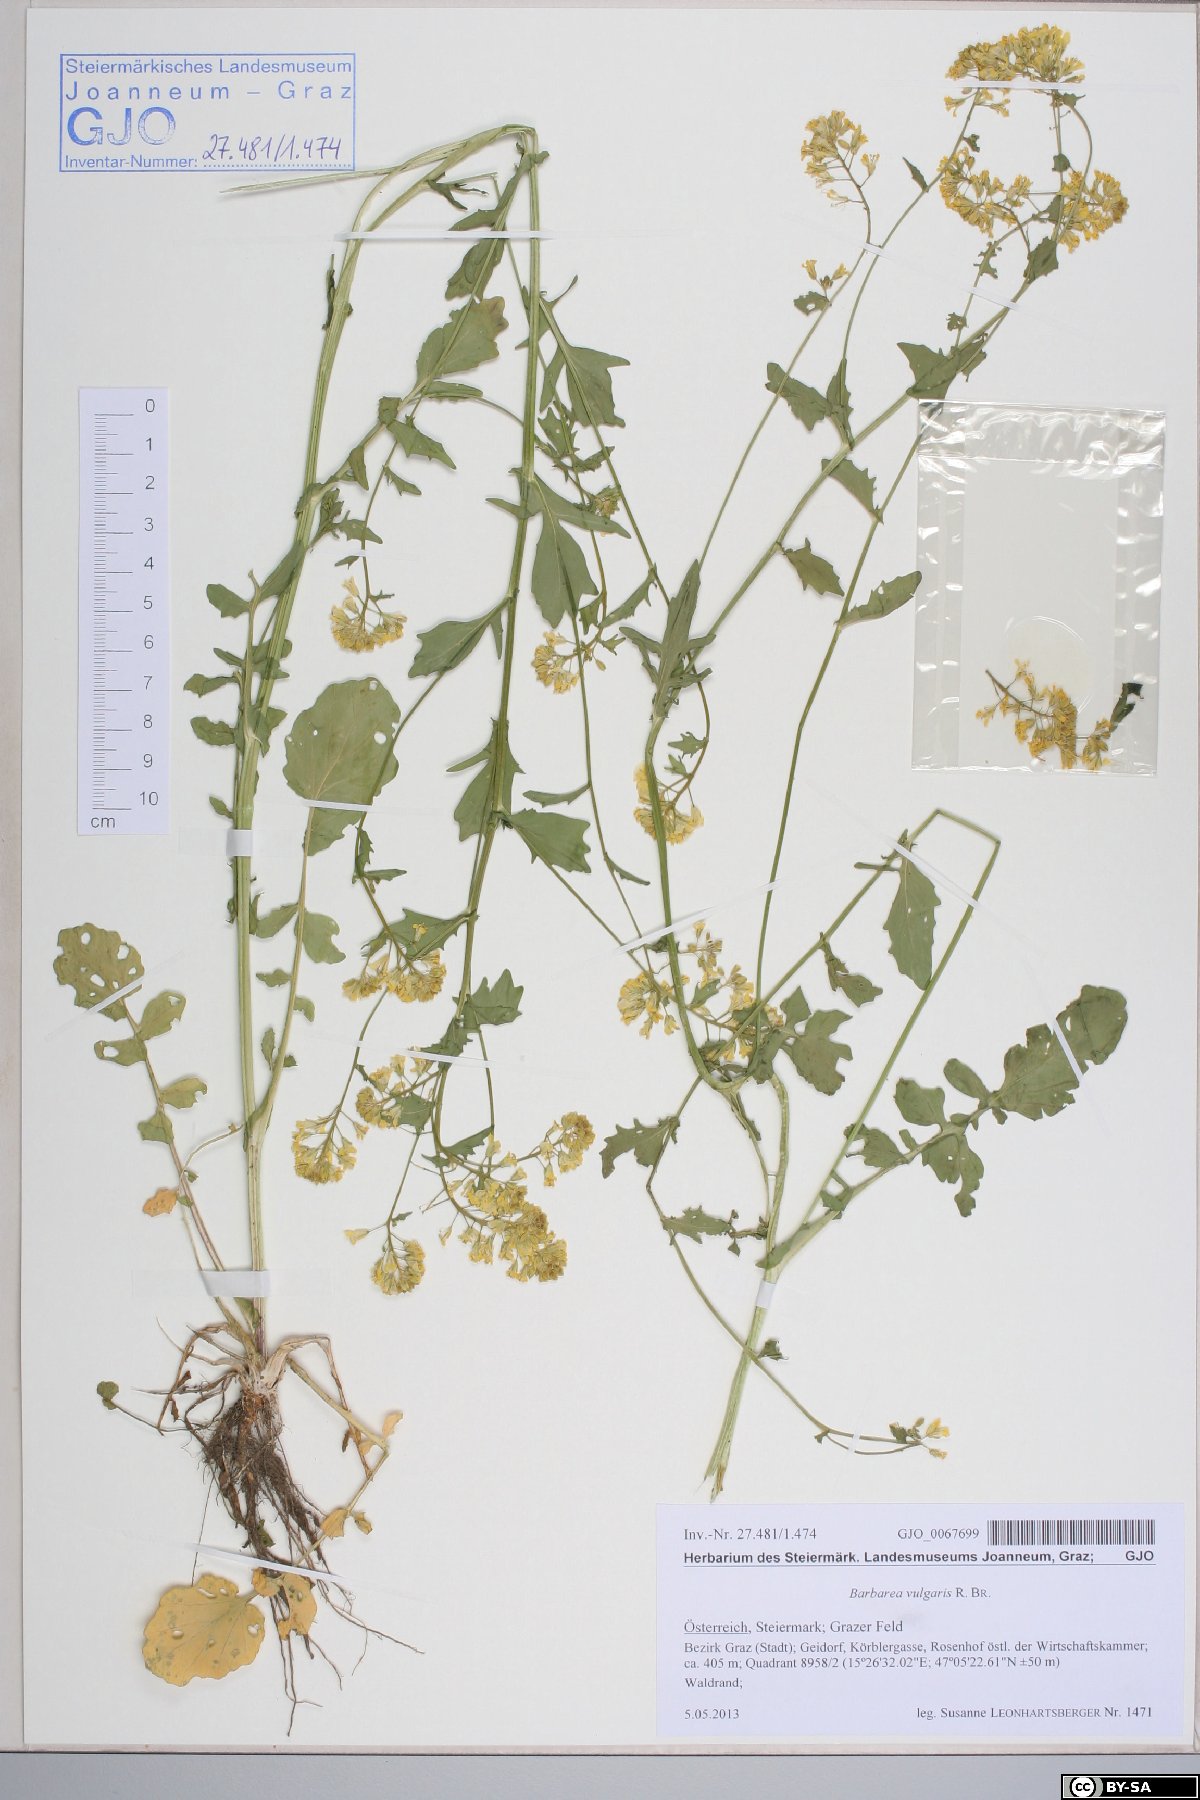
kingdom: Plantae
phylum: Tracheophyta
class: Magnoliopsida
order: Brassicales
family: Brassicaceae
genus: Barbarea
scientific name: Barbarea vulgaris
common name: Cressy-greens
